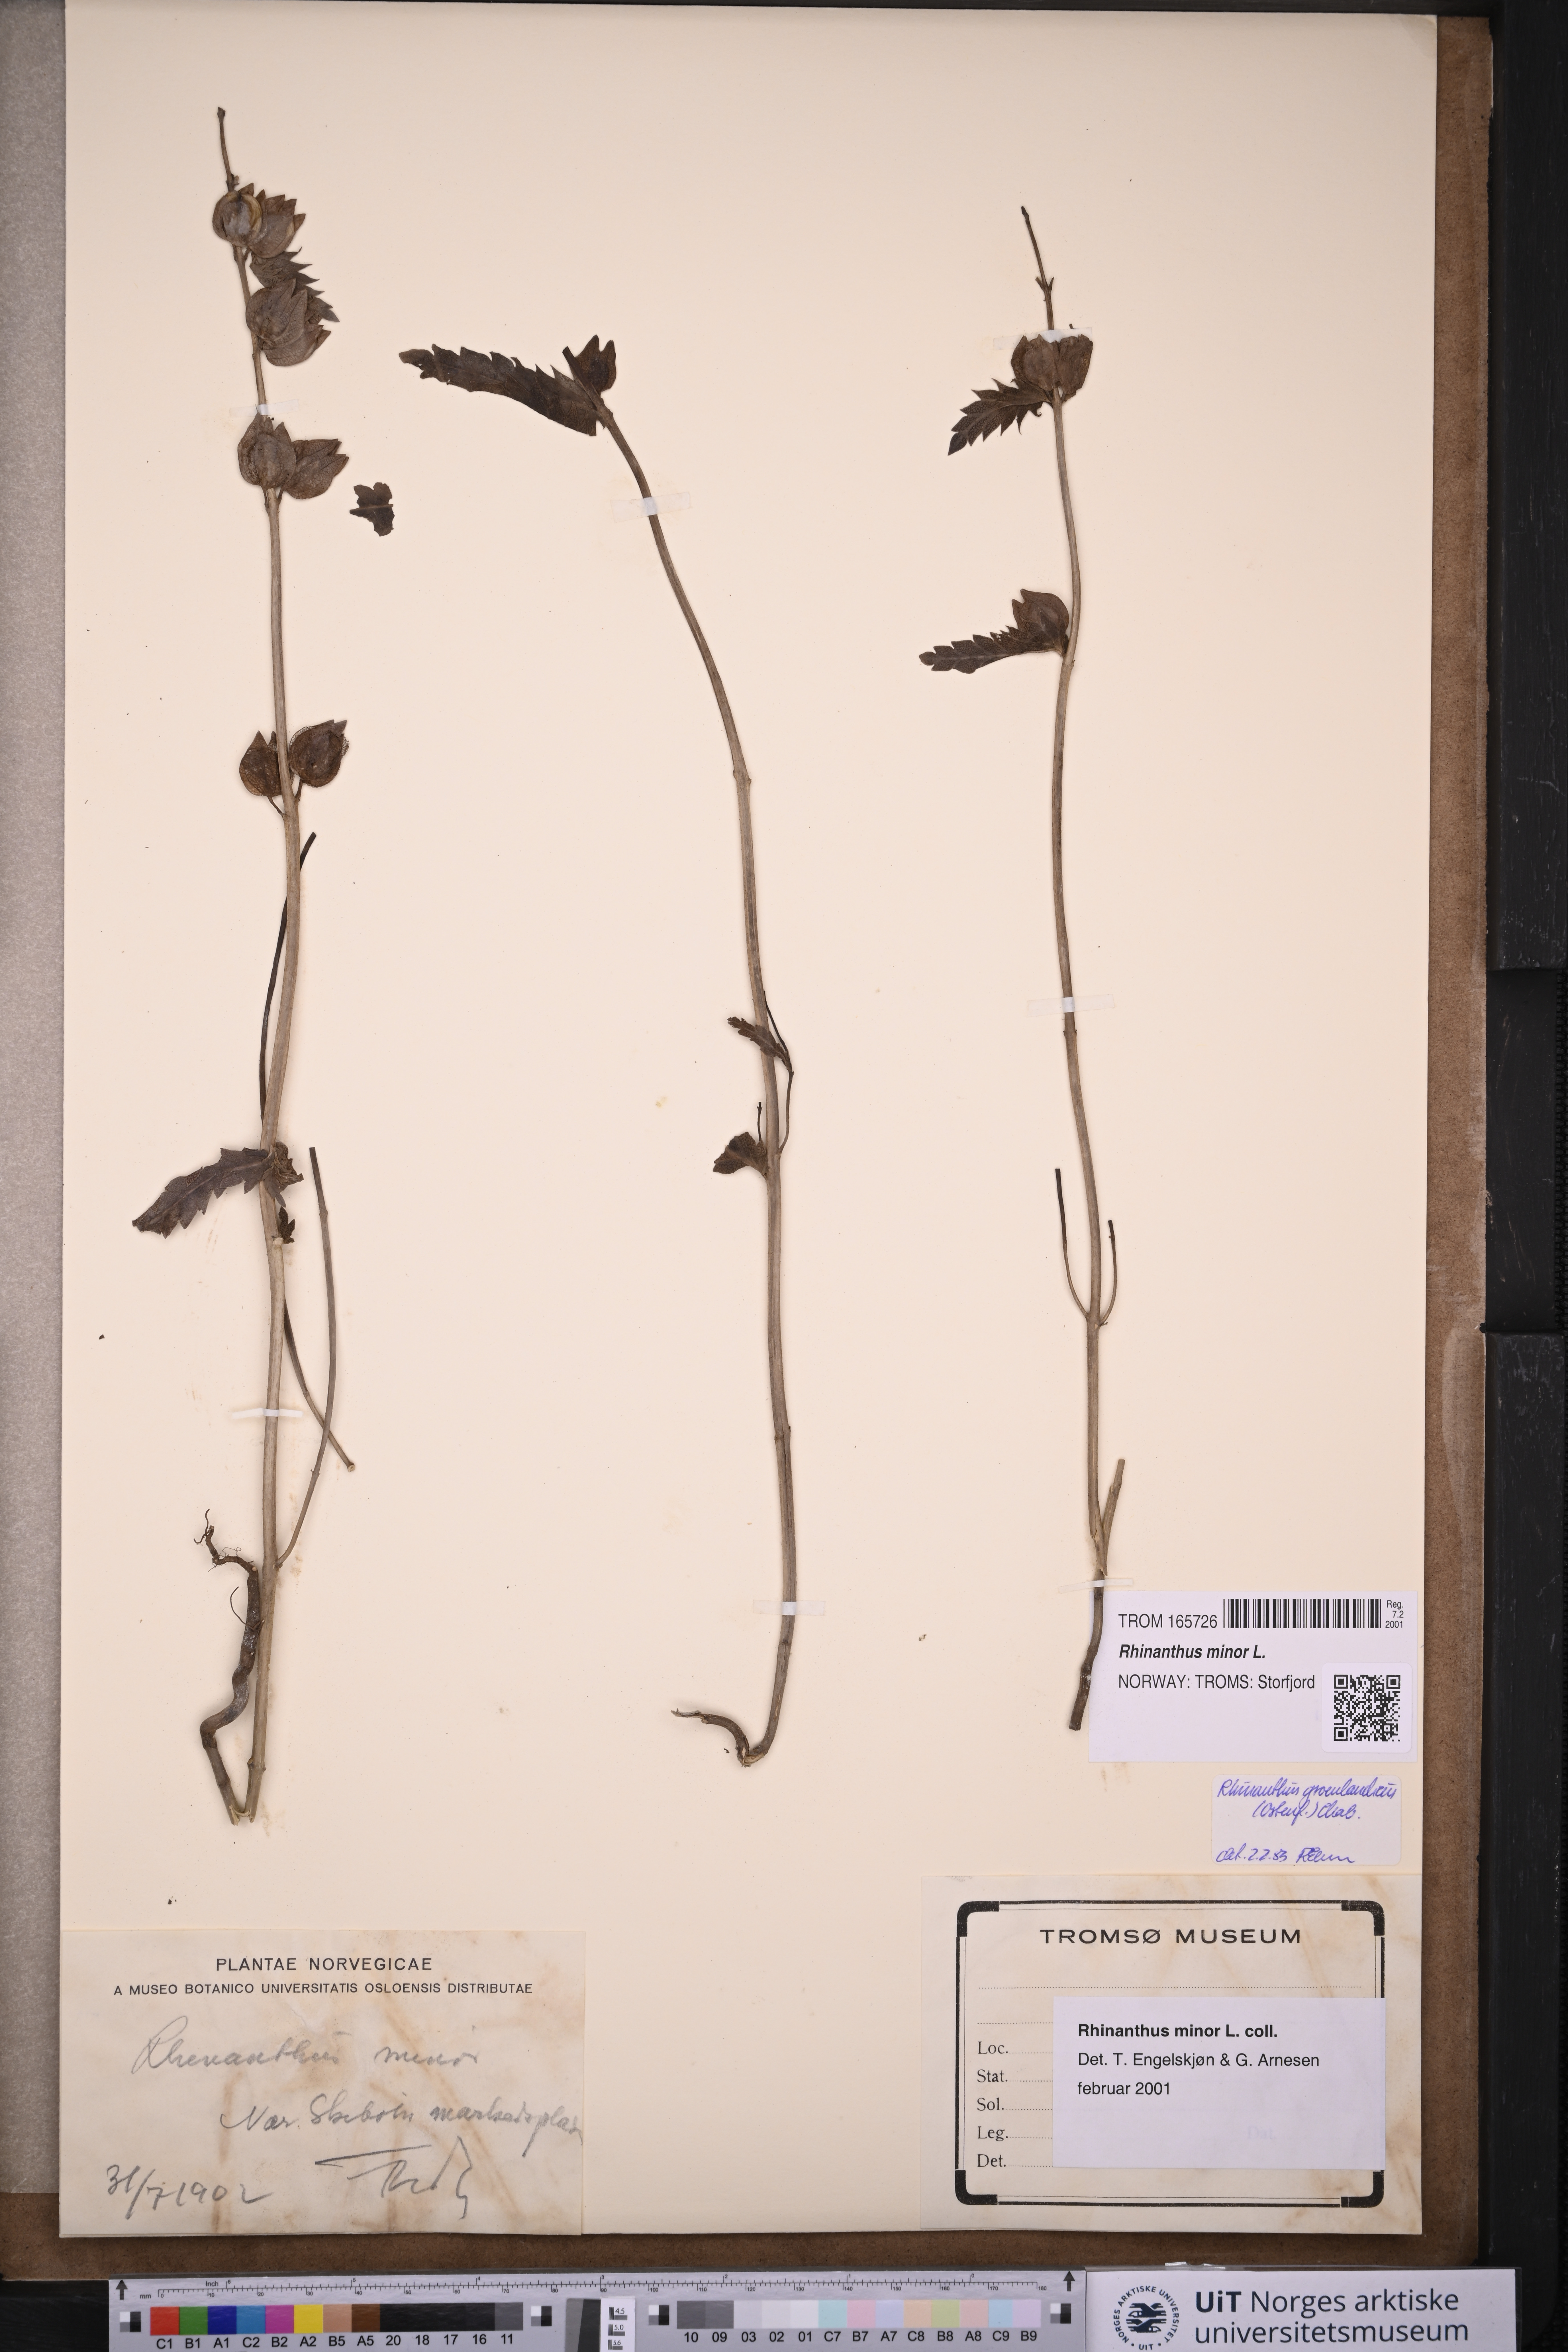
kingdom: Plantae
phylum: Tracheophyta
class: Magnoliopsida
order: Lamiales
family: Orobanchaceae
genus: Rhinanthus
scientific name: Rhinanthus minor
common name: Yellow-rattle
